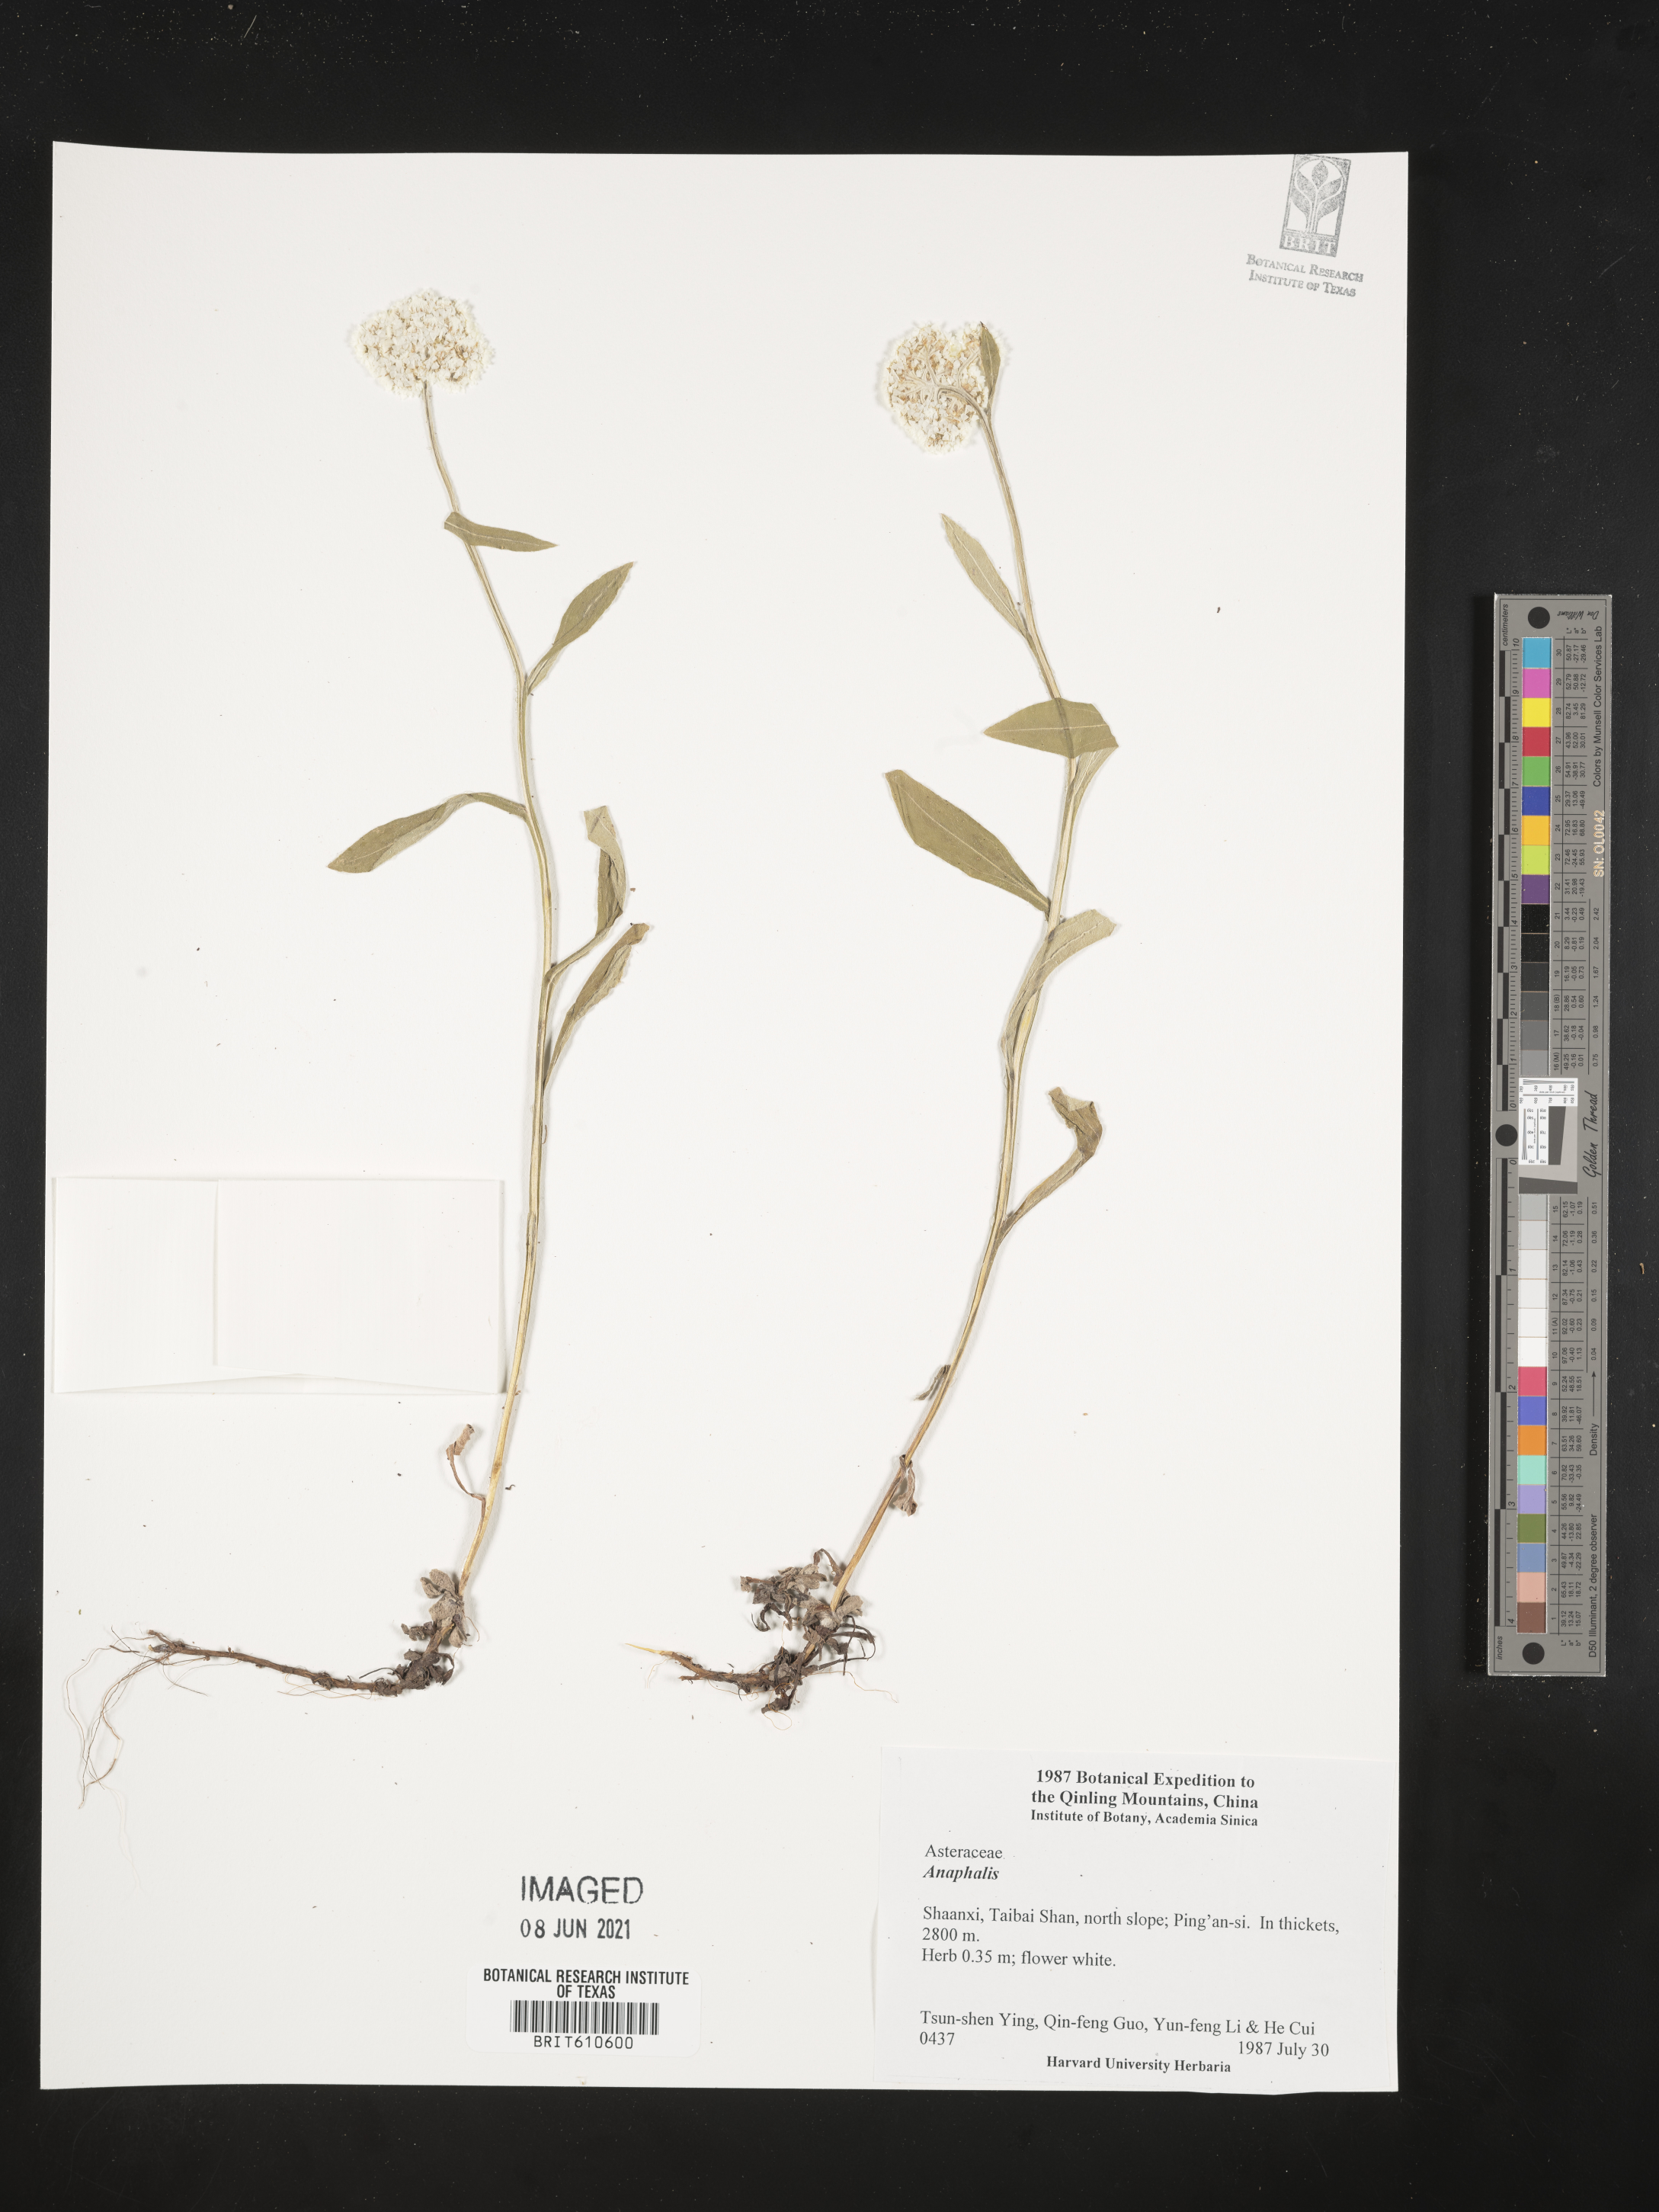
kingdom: Plantae
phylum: Tracheophyta
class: Magnoliopsida
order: Asterales
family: Asteraceae
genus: Anaphalis
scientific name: Anaphalis
